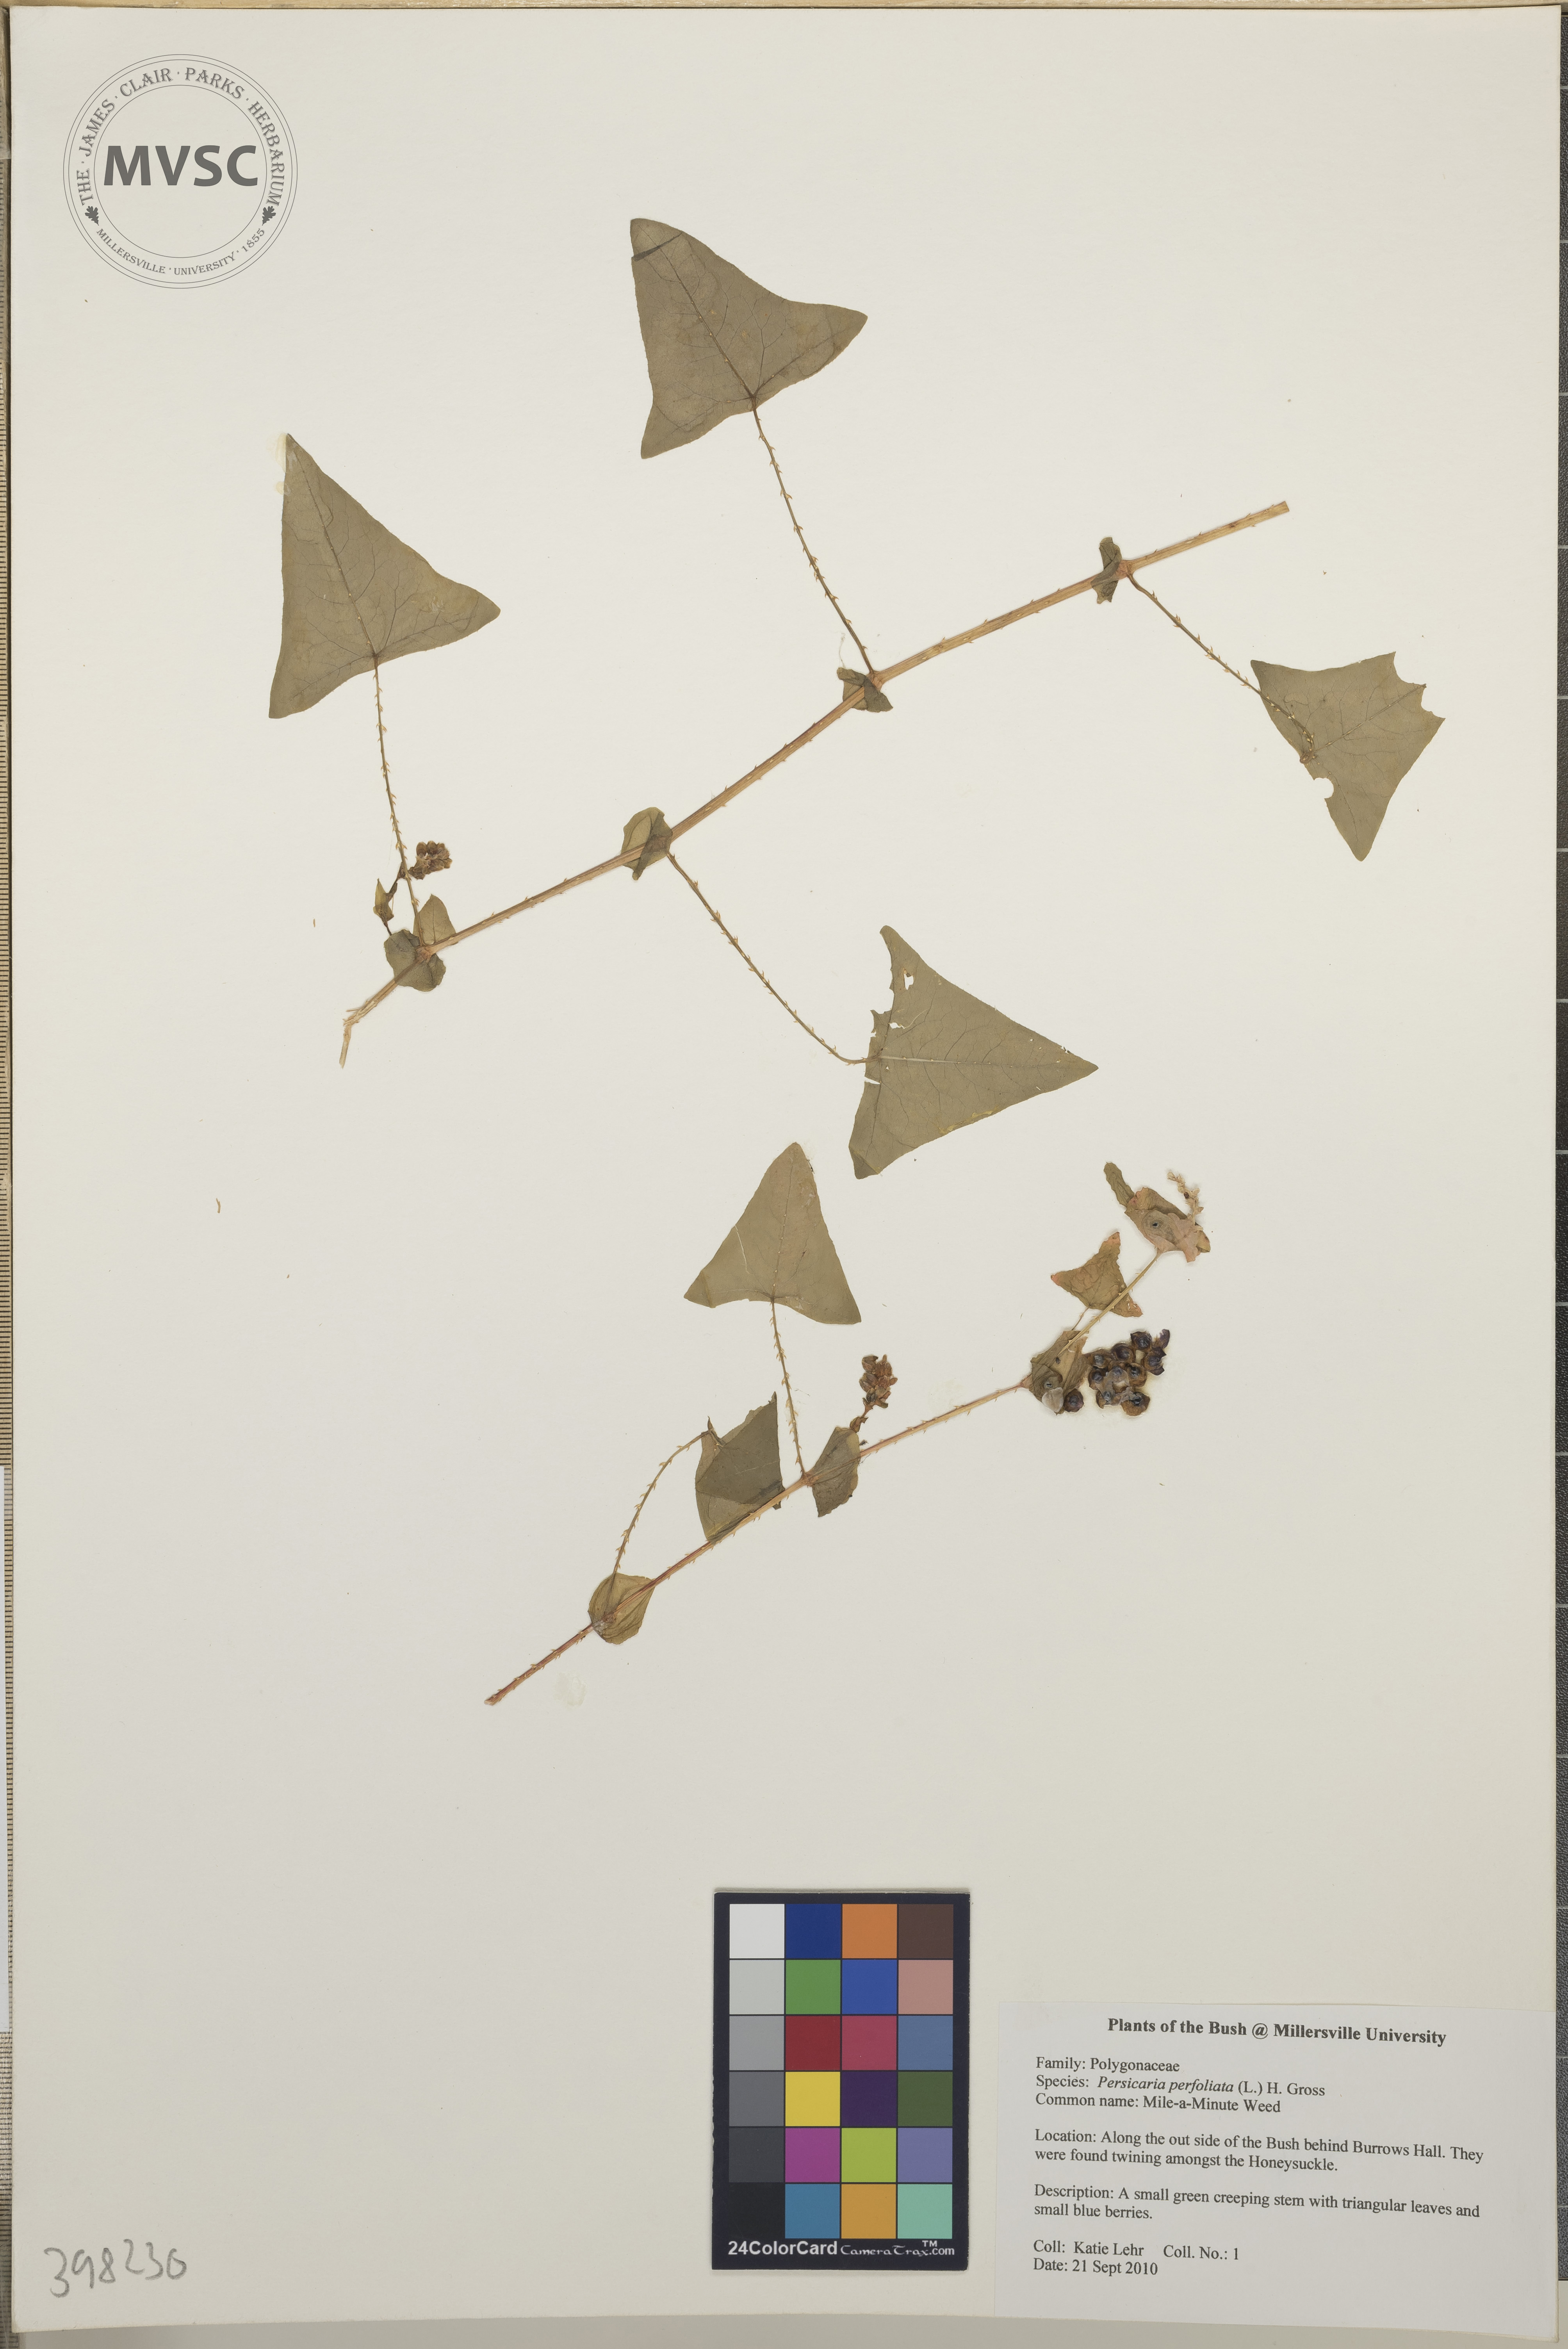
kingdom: Plantae
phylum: Tracheophyta
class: Magnoliopsida
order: Caryophyllales
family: Polygonaceae
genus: Persicaria
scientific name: Persicaria perfoliata
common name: Mile-a-minute weed
